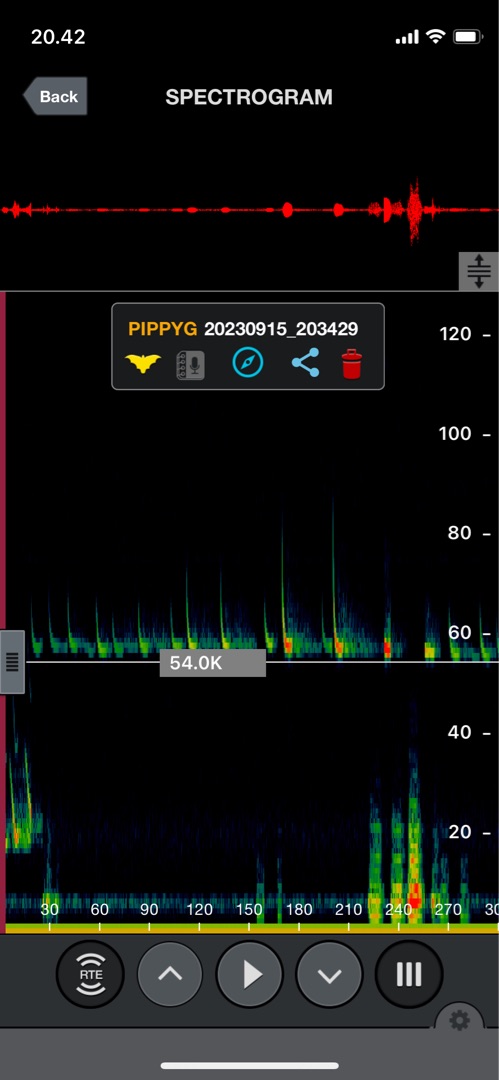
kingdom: Animalia
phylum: Chordata
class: Mammalia
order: Chiroptera
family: Vespertilionidae
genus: Pipistrellus
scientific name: Pipistrellus pygmaeus
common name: Dværgflagermus
